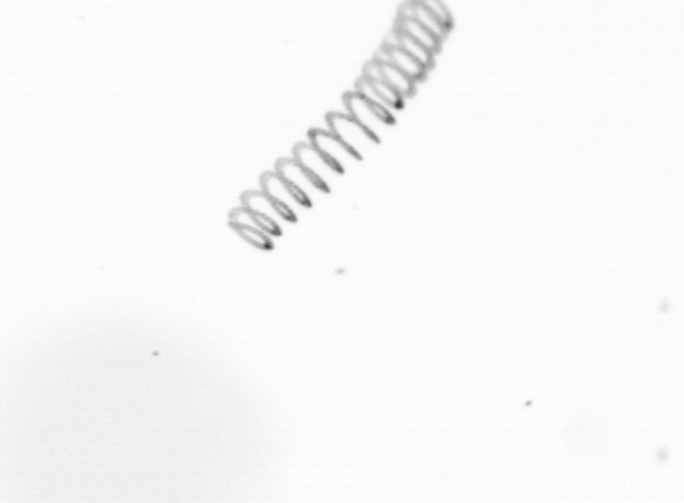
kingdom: Chromista
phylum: Ochrophyta
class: Bacillariophyceae
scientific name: Bacillariophyceae
